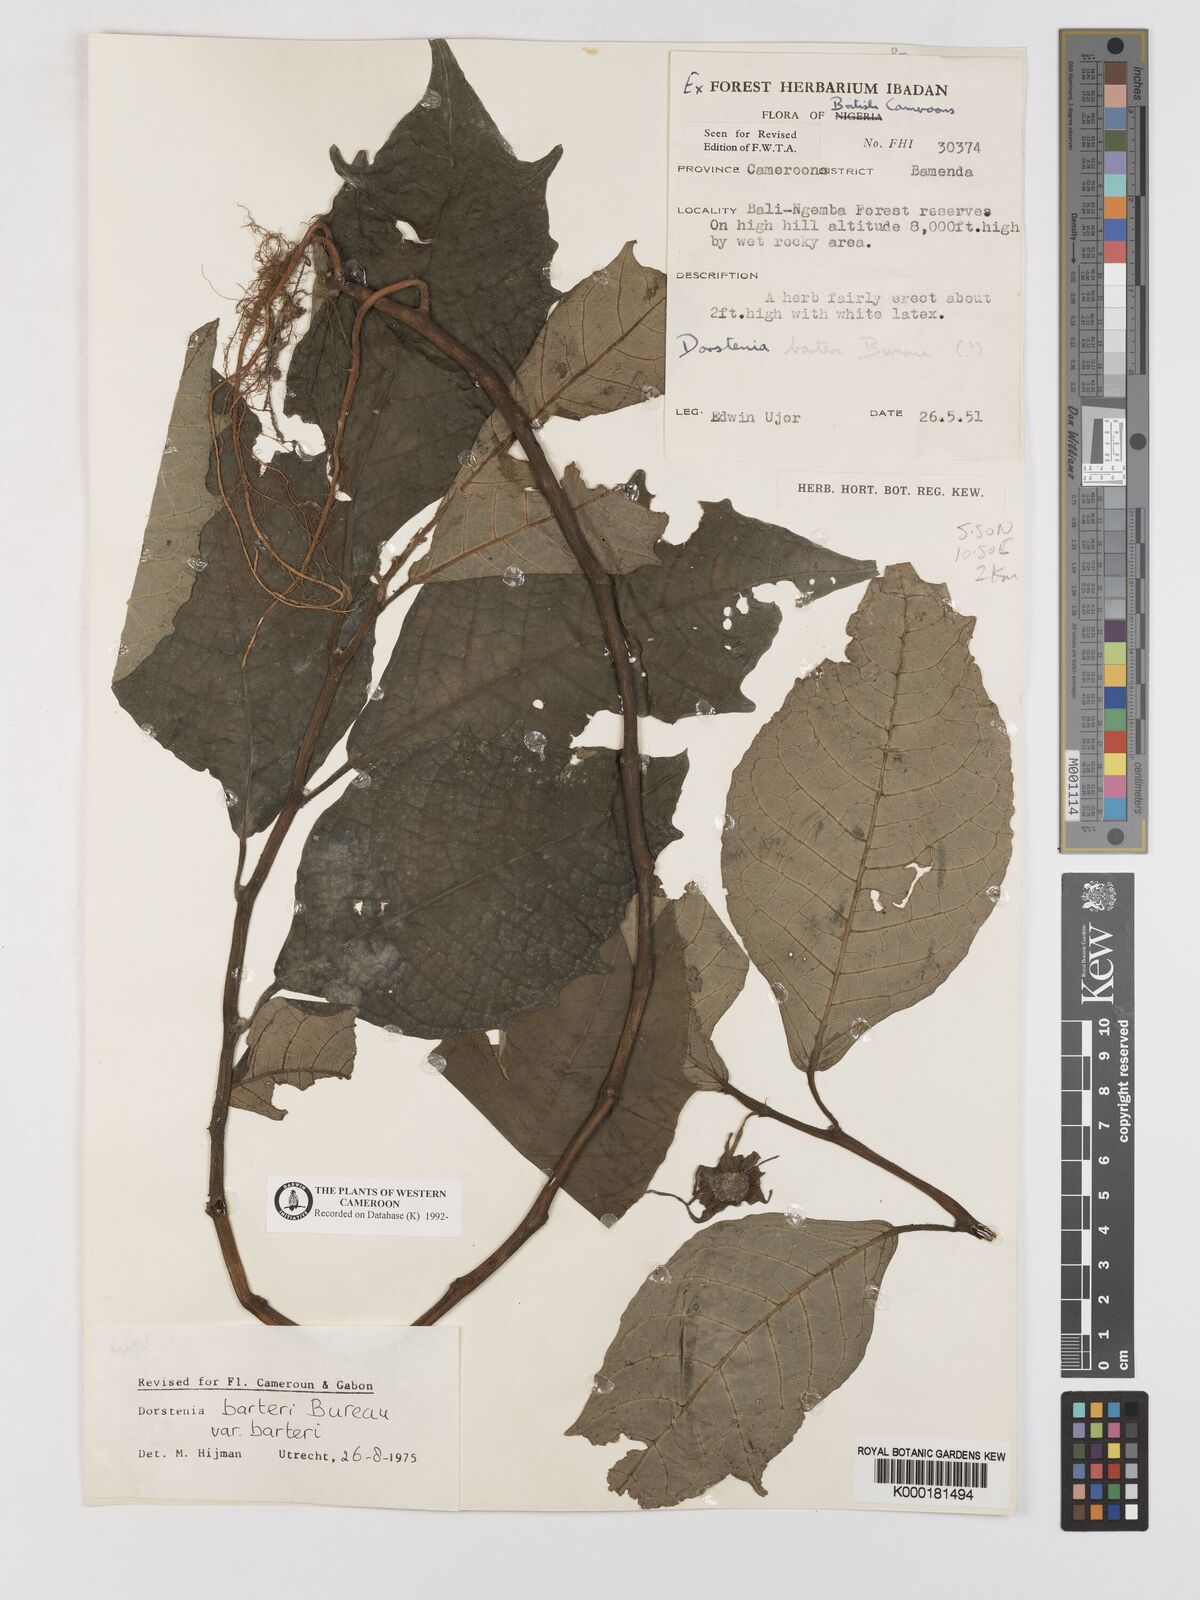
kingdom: Plantae
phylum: Tracheophyta
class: Magnoliopsida
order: Rosales
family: Moraceae
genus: Dorstenia
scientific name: Dorstenia barteri
